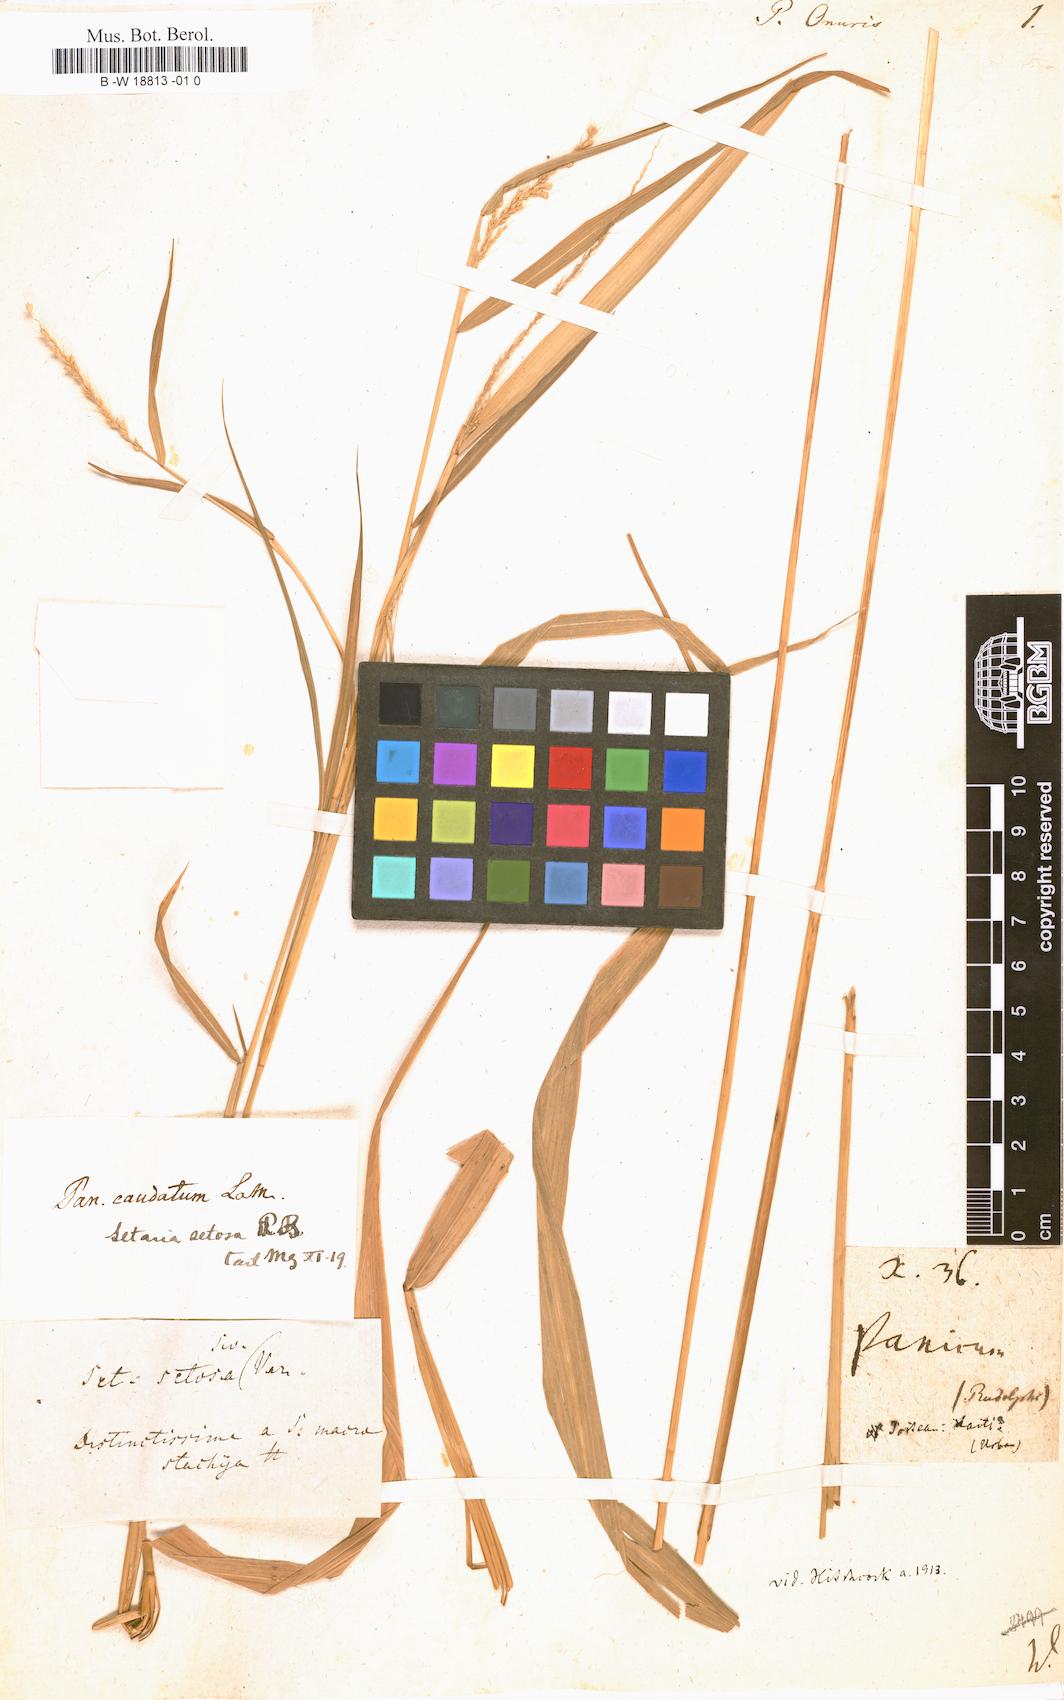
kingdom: Plantae
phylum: Tracheophyta
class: Liliopsida
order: Poales
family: Poaceae
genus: Panicum
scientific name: Panicum onurus
